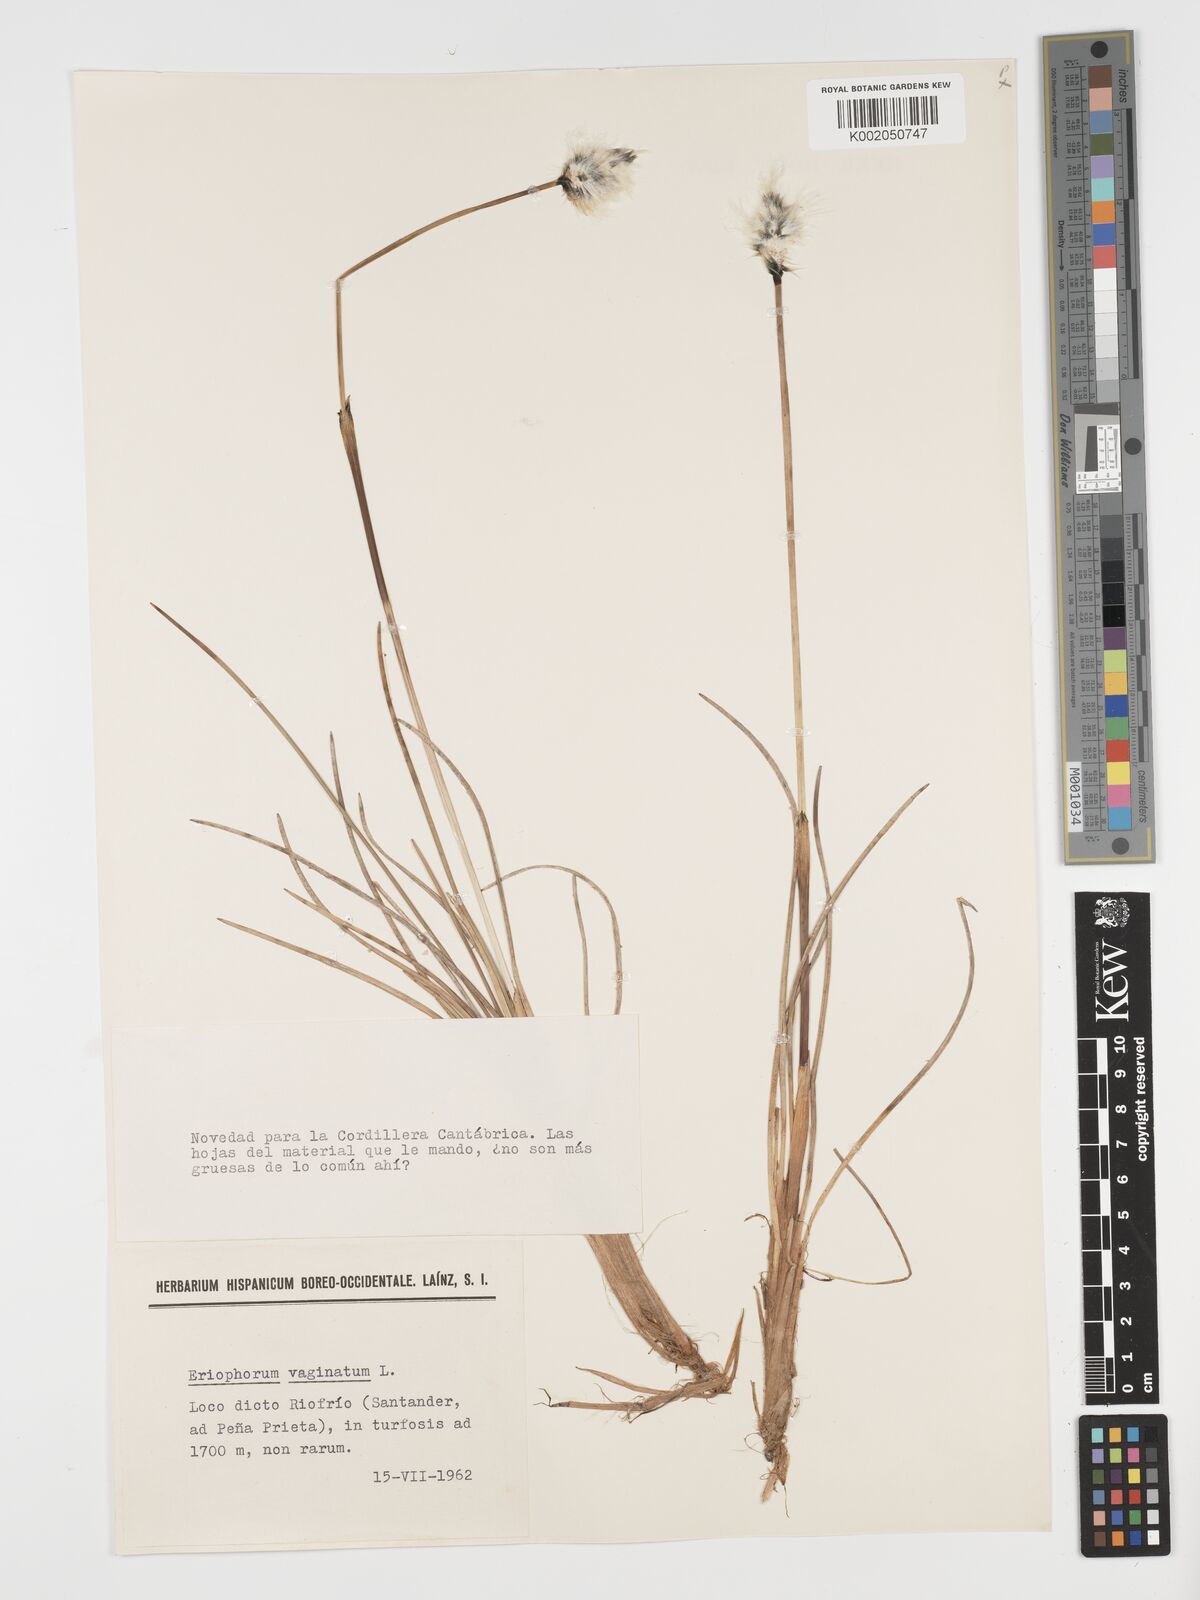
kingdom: Plantae
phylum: Tracheophyta
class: Liliopsida
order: Poales
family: Cyperaceae
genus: Eriophorum
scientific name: Eriophorum vaginatum
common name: Hare's-tail cottongrass
